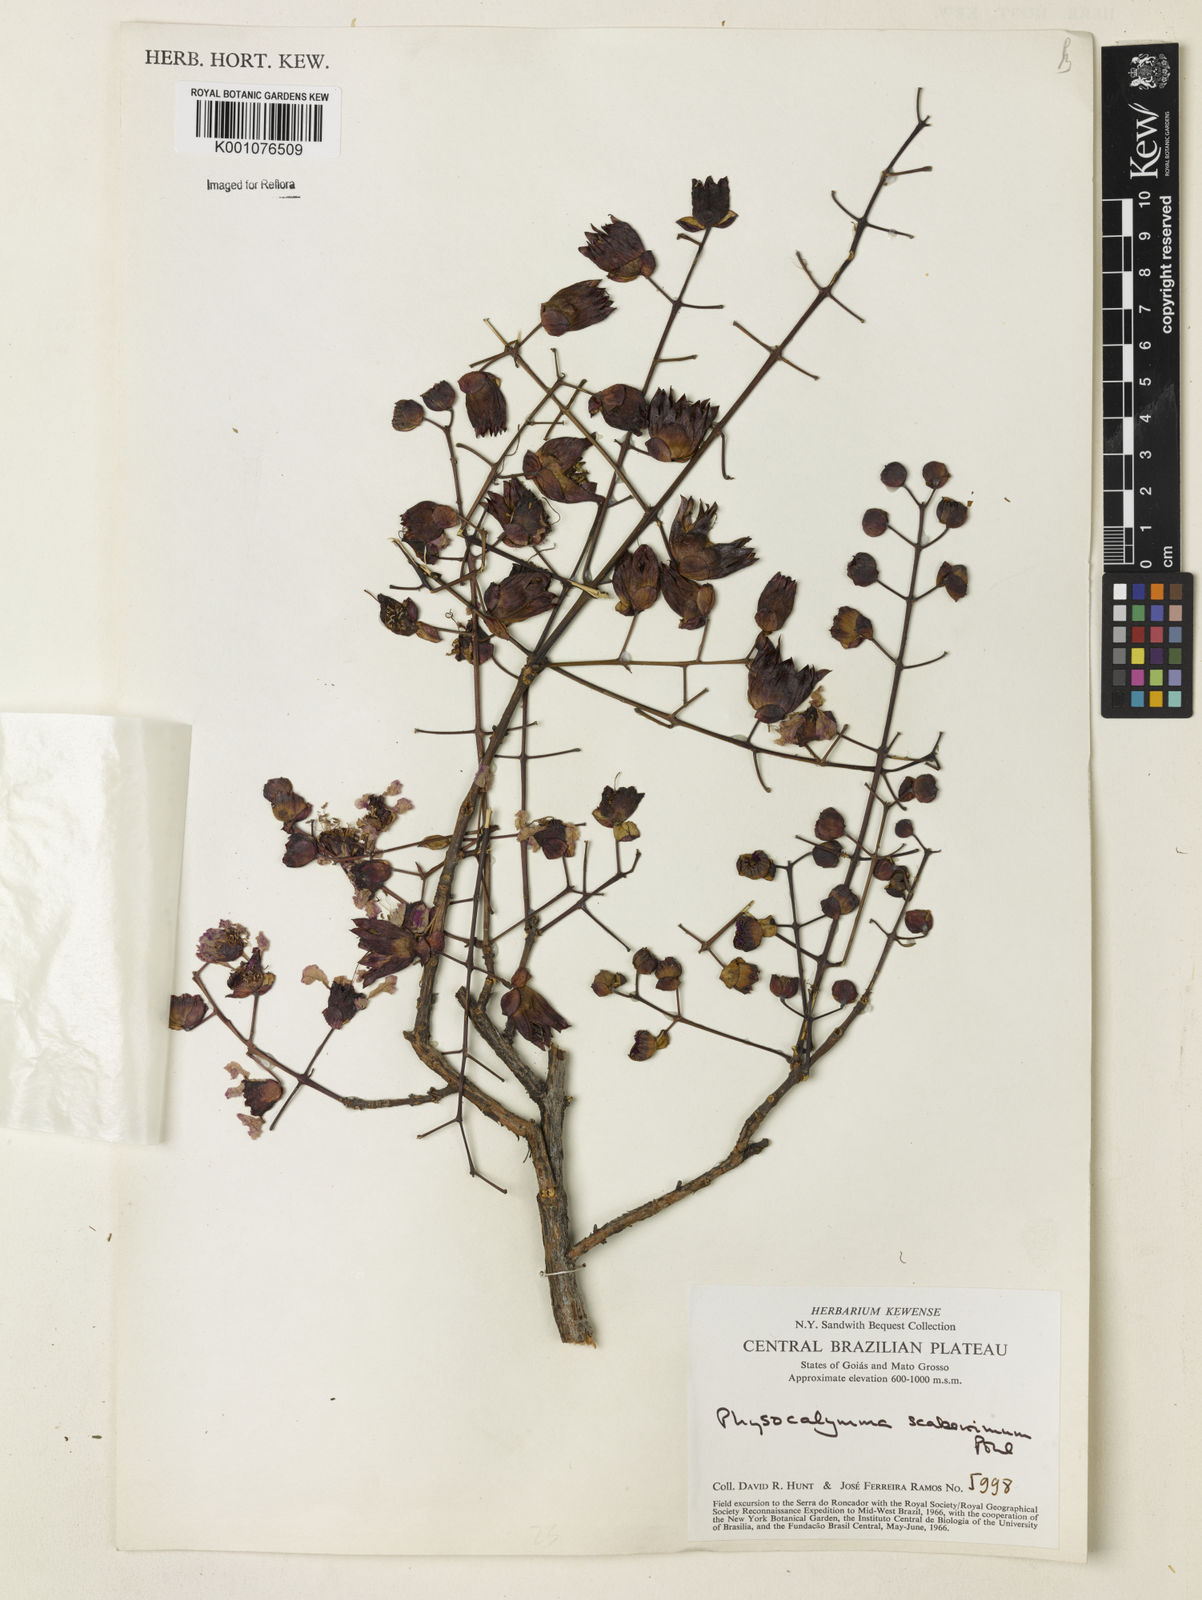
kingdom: Plantae
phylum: Tracheophyta
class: Magnoliopsida
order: Myrtales
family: Lythraceae
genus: Physocalymma
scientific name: Physocalymma scaberrimum
